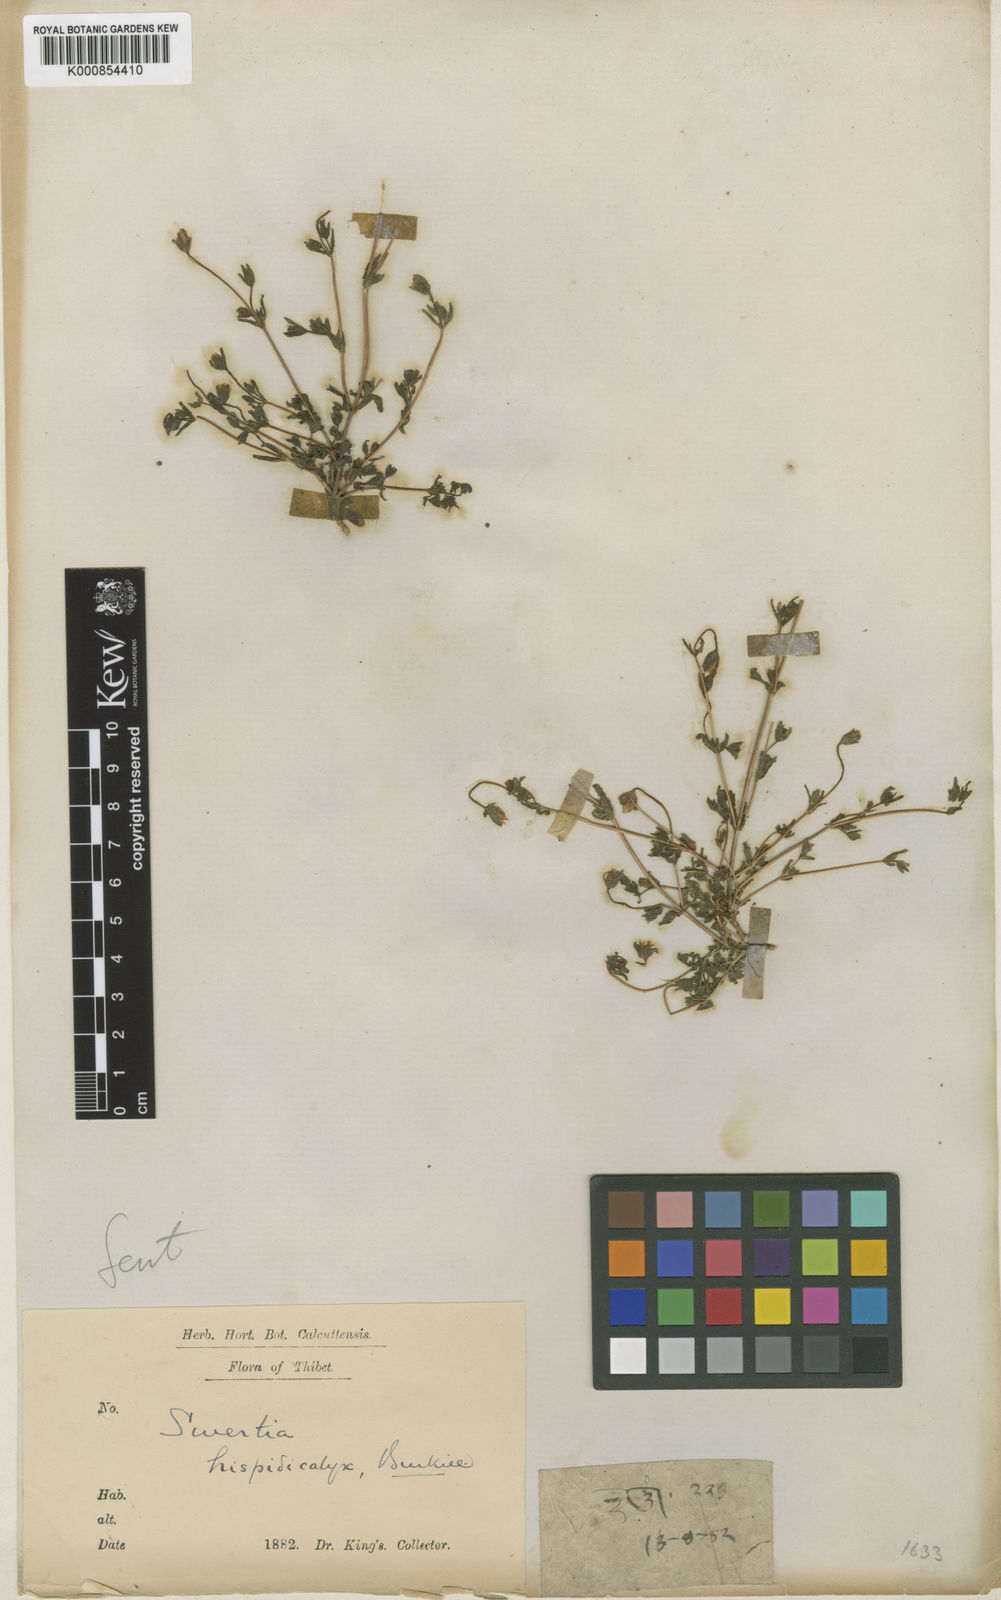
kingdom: Plantae
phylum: Tracheophyta
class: Magnoliopsida
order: Gentianales
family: Gentianaceae
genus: Swertia
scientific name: Swertia hispidicalyx
